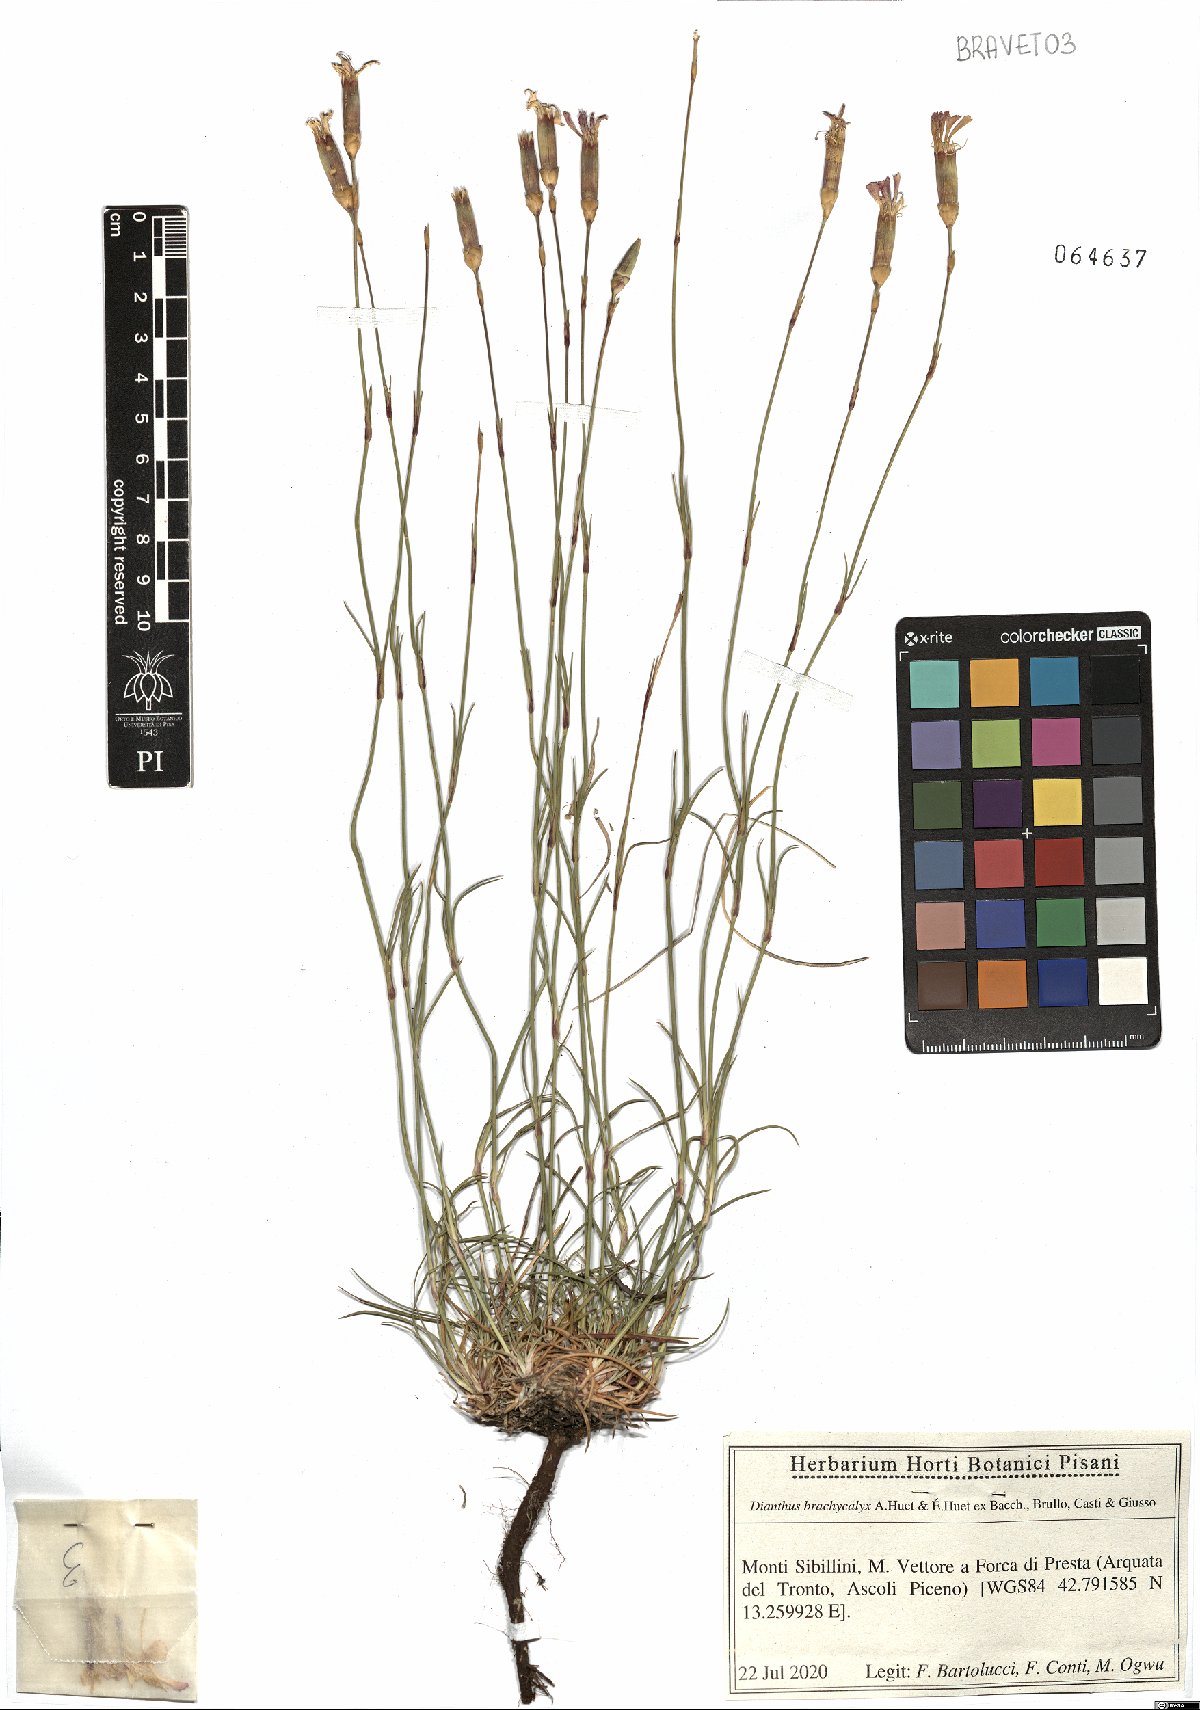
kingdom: Plantae
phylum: Tracheophyta
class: Magnoliopsida
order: Caryophyllales
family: Caryophyllaceae
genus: Dianthus
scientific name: Dianthus brachycalyx
